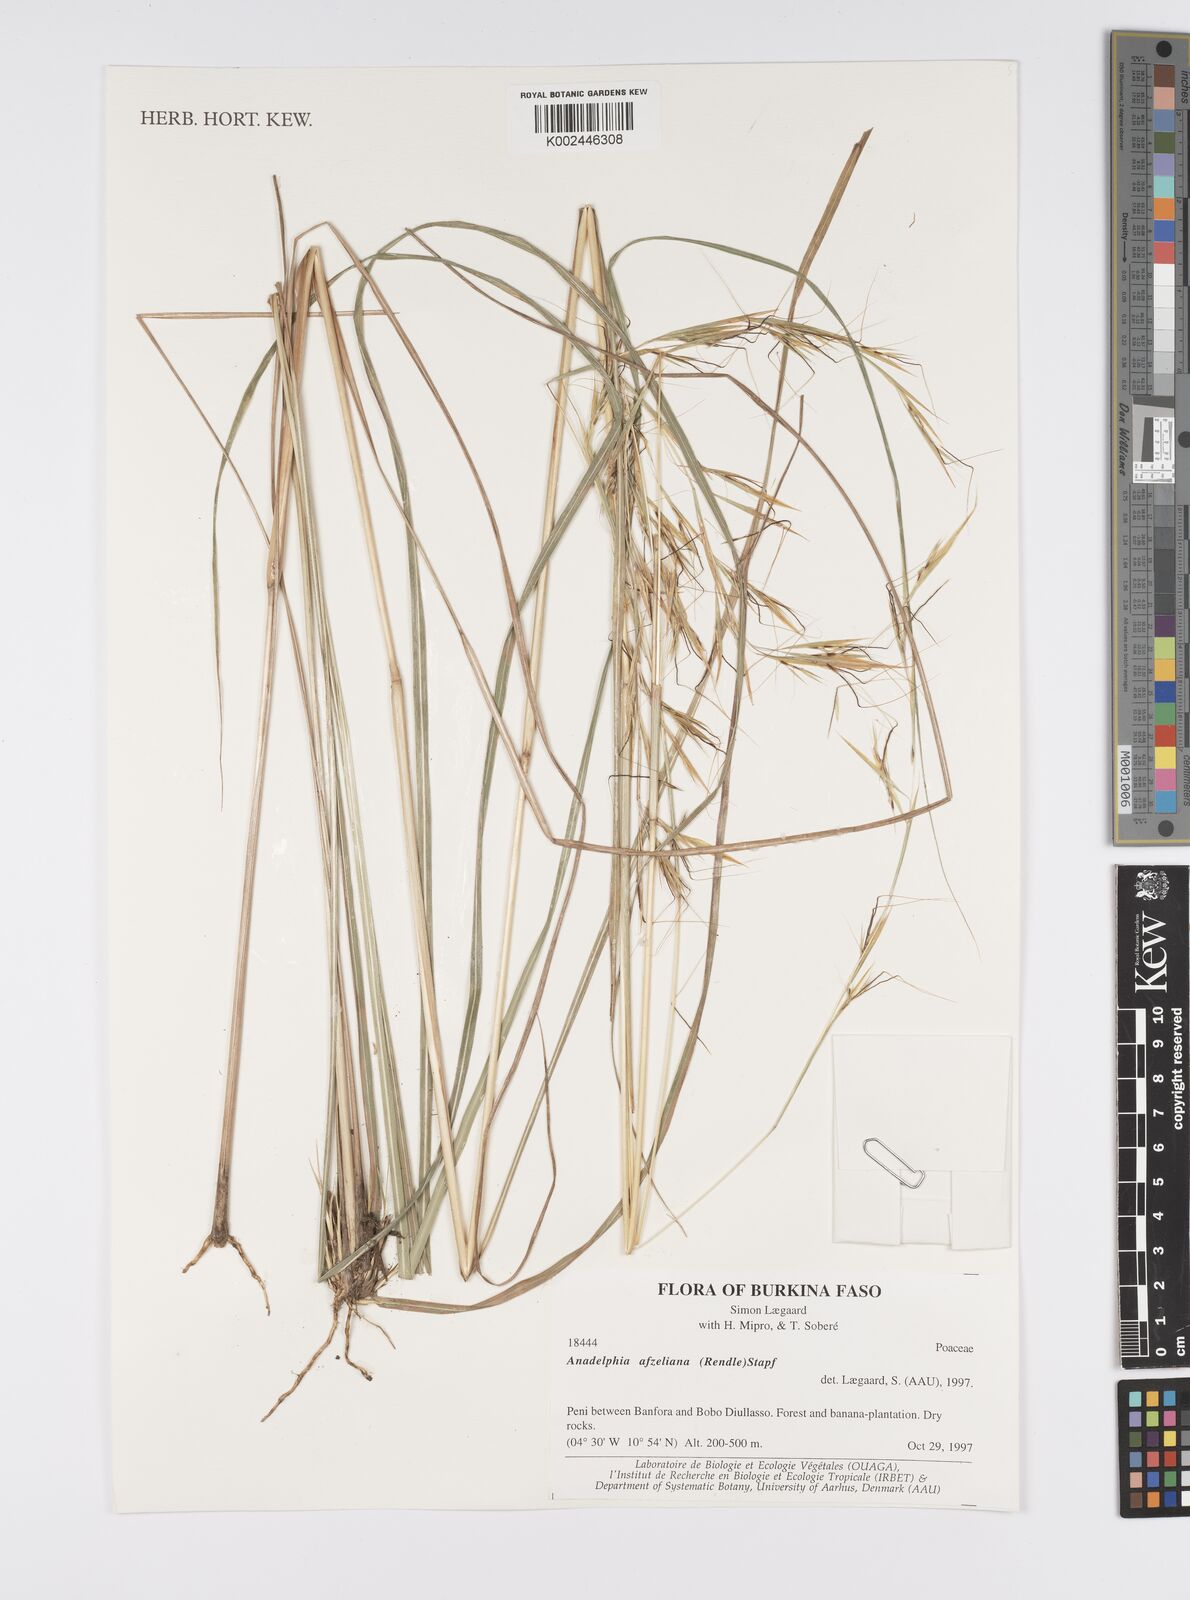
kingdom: Plantae
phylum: Tracheophyta
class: Liliopsida
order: Poales
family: Poaceae
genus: Anadelphia
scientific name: Anadelphia afzeliana
